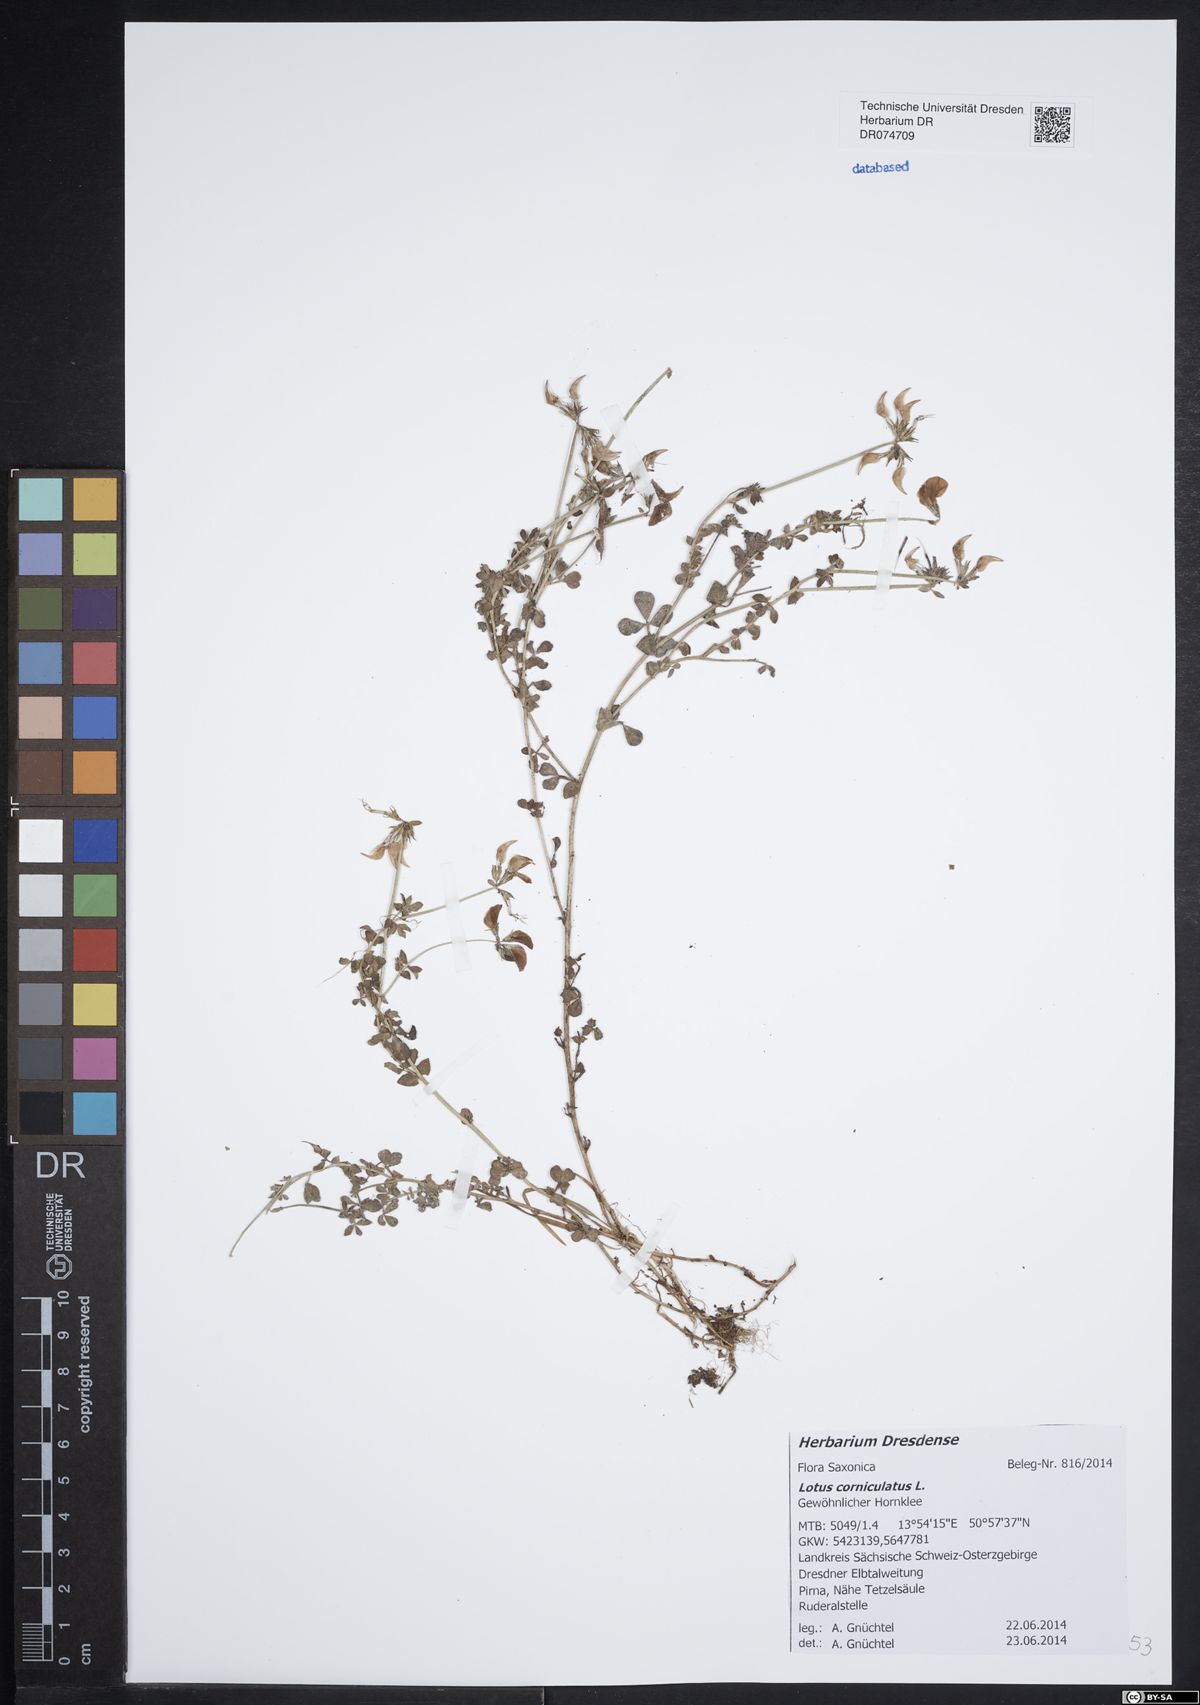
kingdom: Plantae
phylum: Tracheophyta
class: Magnoliopsida
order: Fabales
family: Fabaceae
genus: Lotus
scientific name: Lotus corniculatus
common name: Common bird's-foot-trefoil
